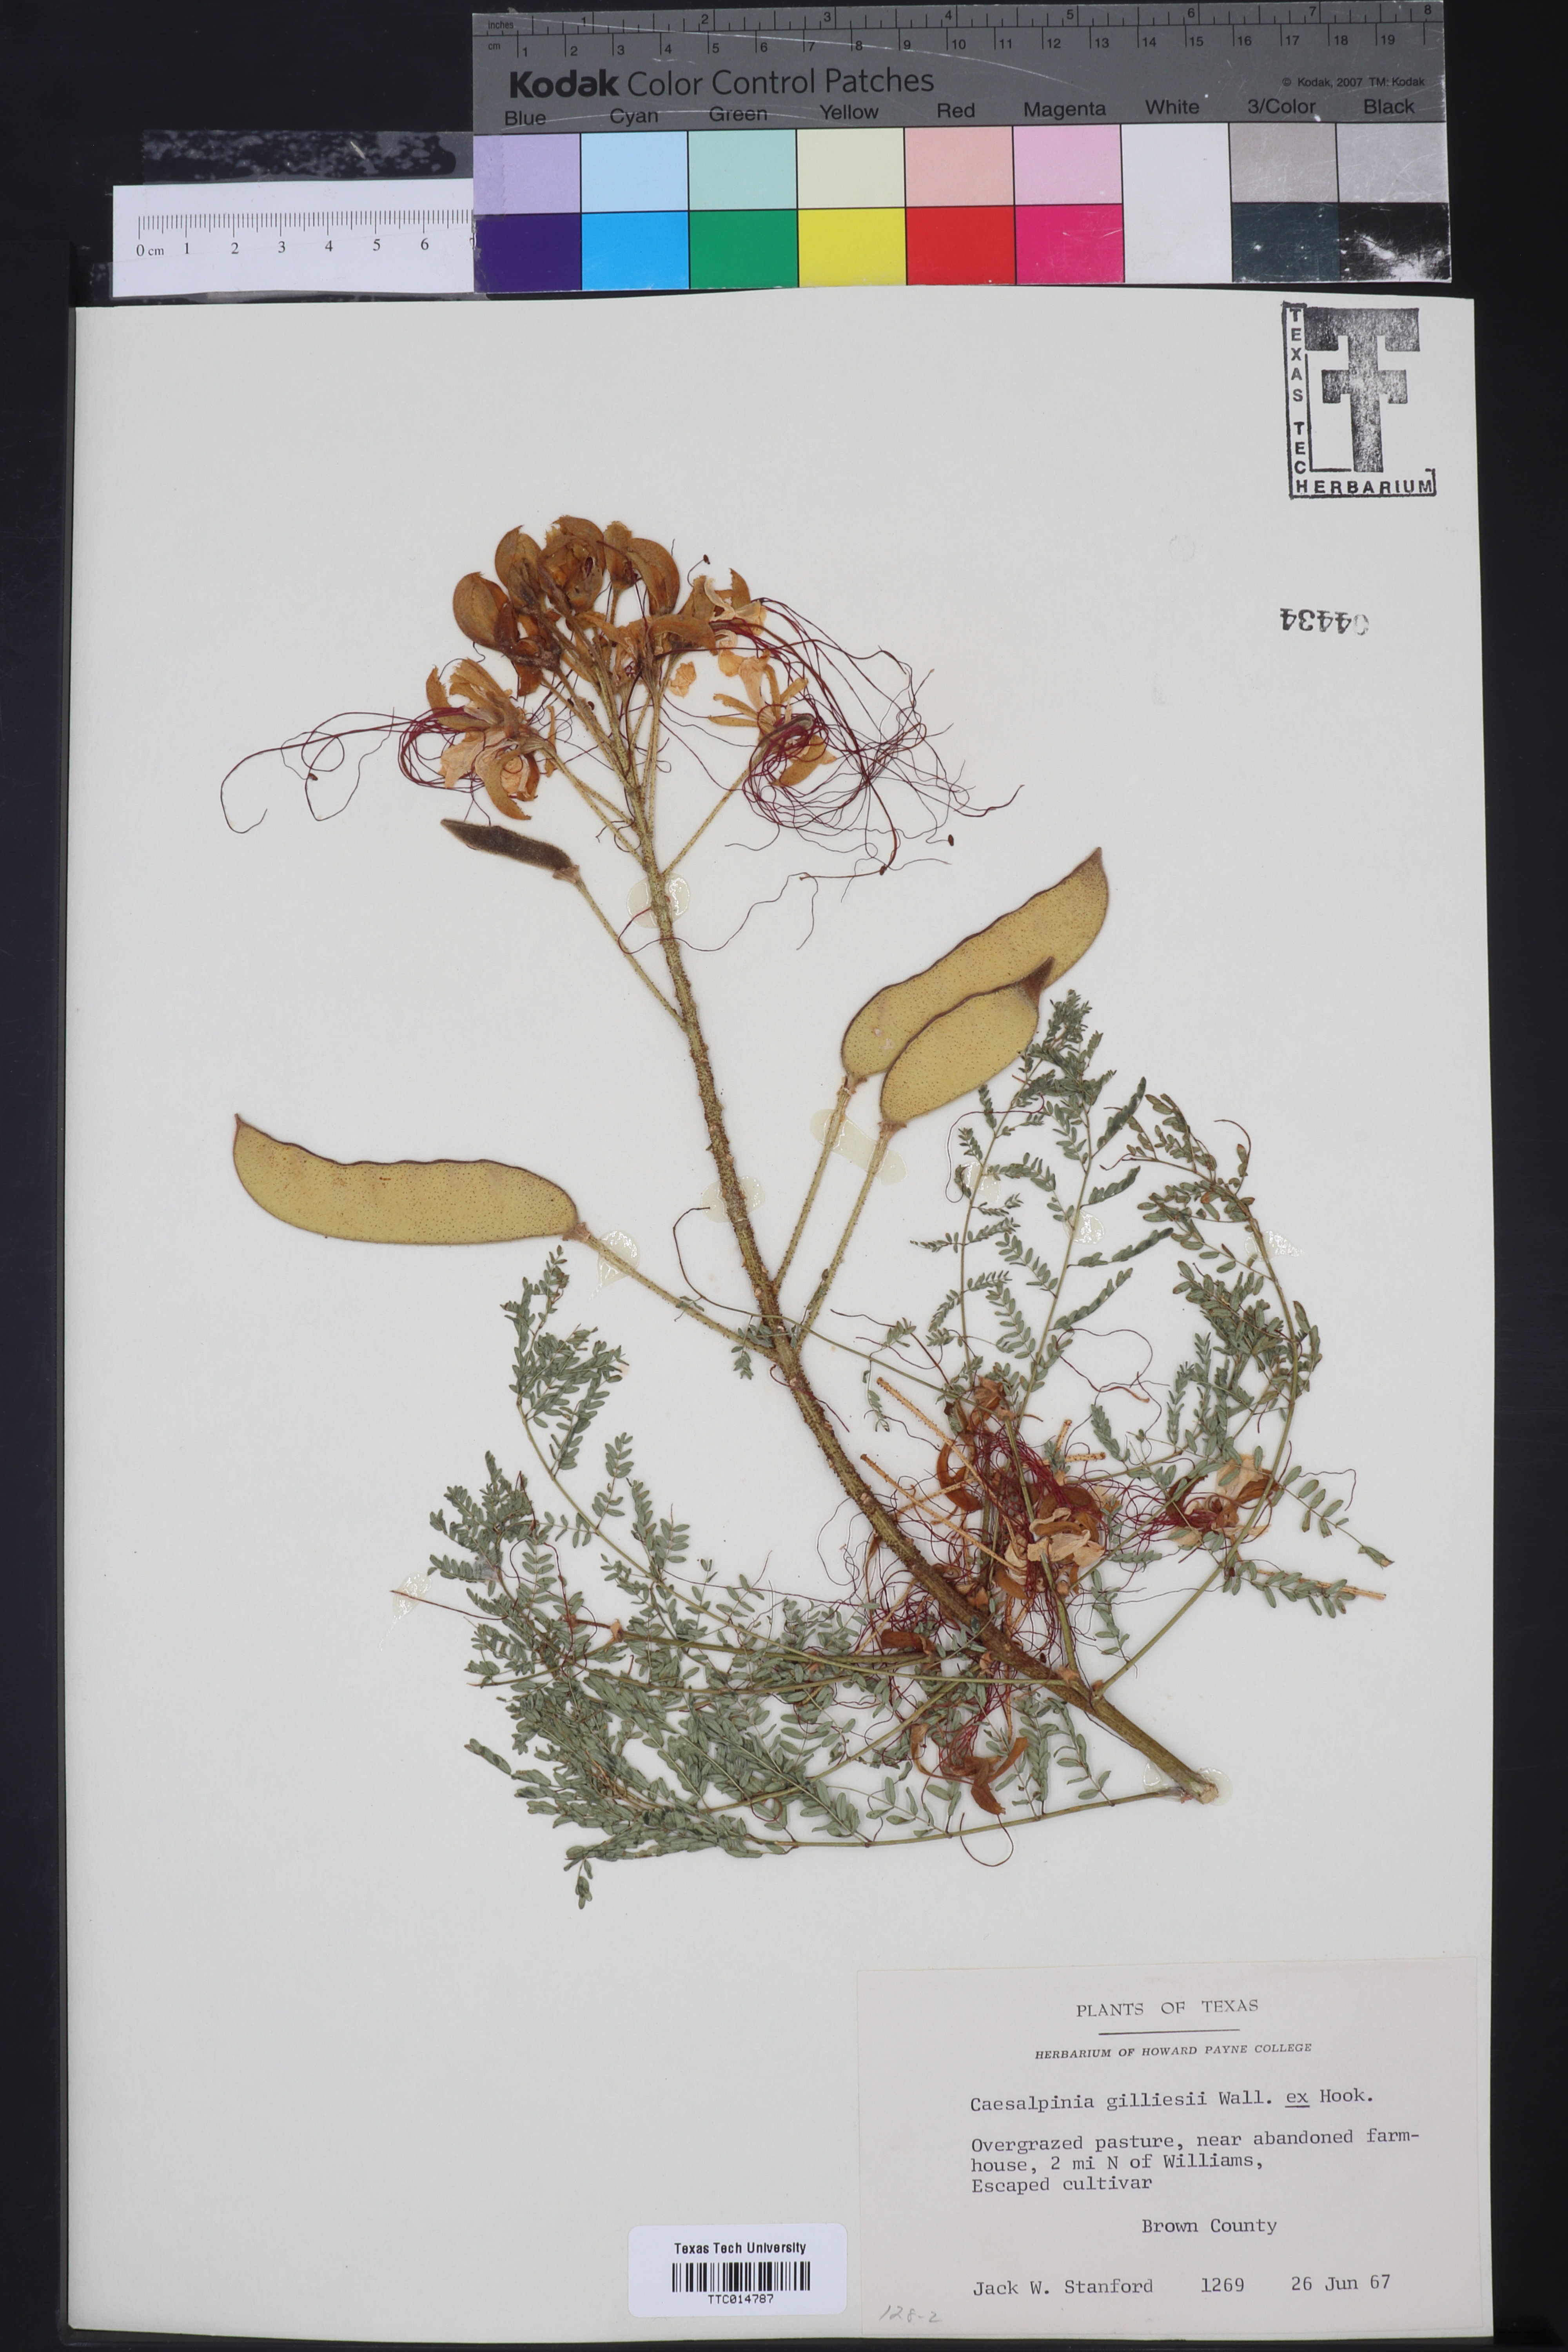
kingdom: Plantae
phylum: Tracheophyta
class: Magnoliopsida
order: Fabales
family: Fabaceae
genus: Erythrostemon
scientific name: Erythrostemon gilliesii
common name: Bird-of-paradise shrub
